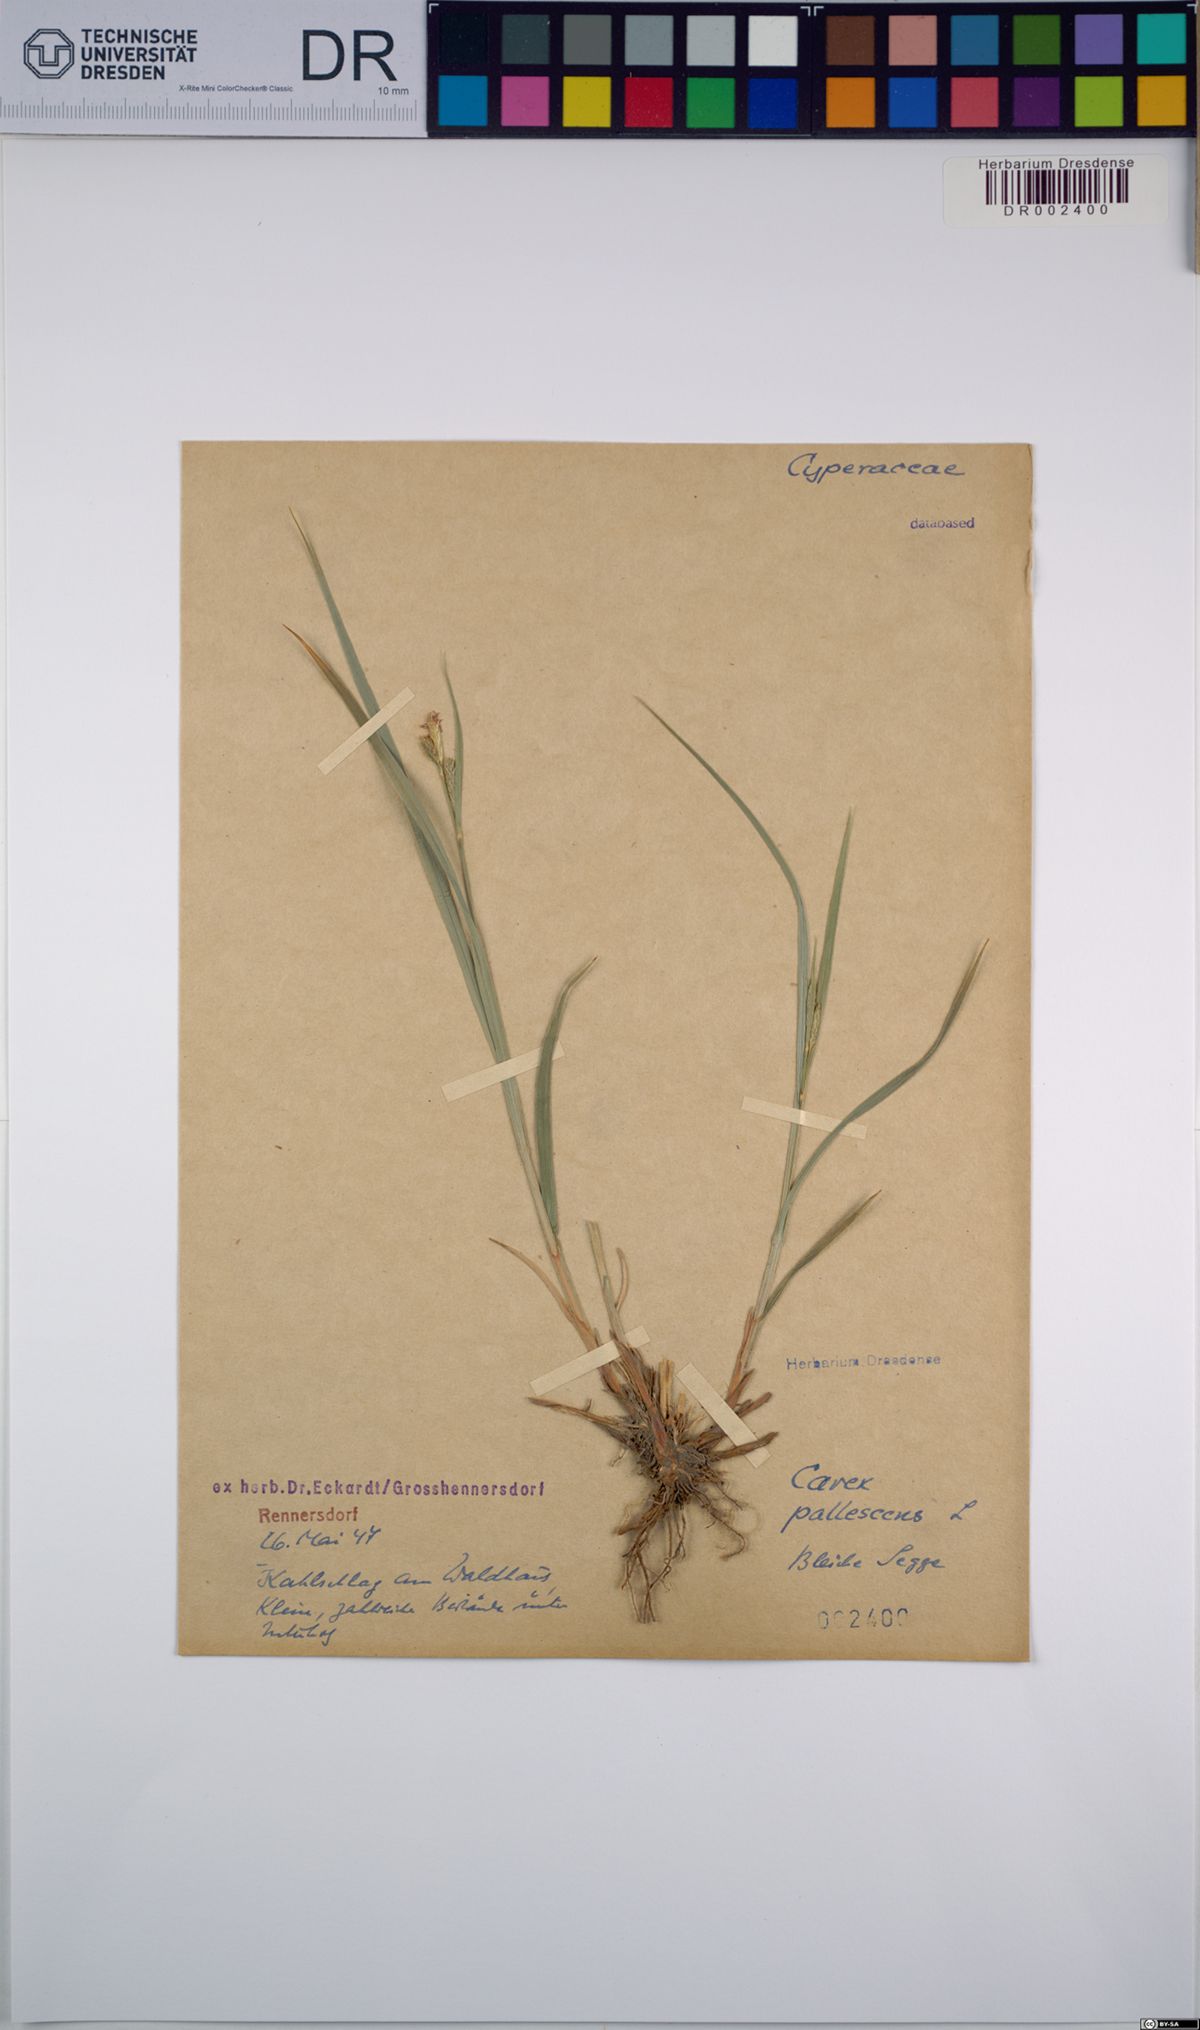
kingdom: Plantae
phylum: Tracheophyta
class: Liliopsida
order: Poales
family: Cyperaceae
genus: Carex
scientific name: Carex pallescens
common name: Pale sedge
